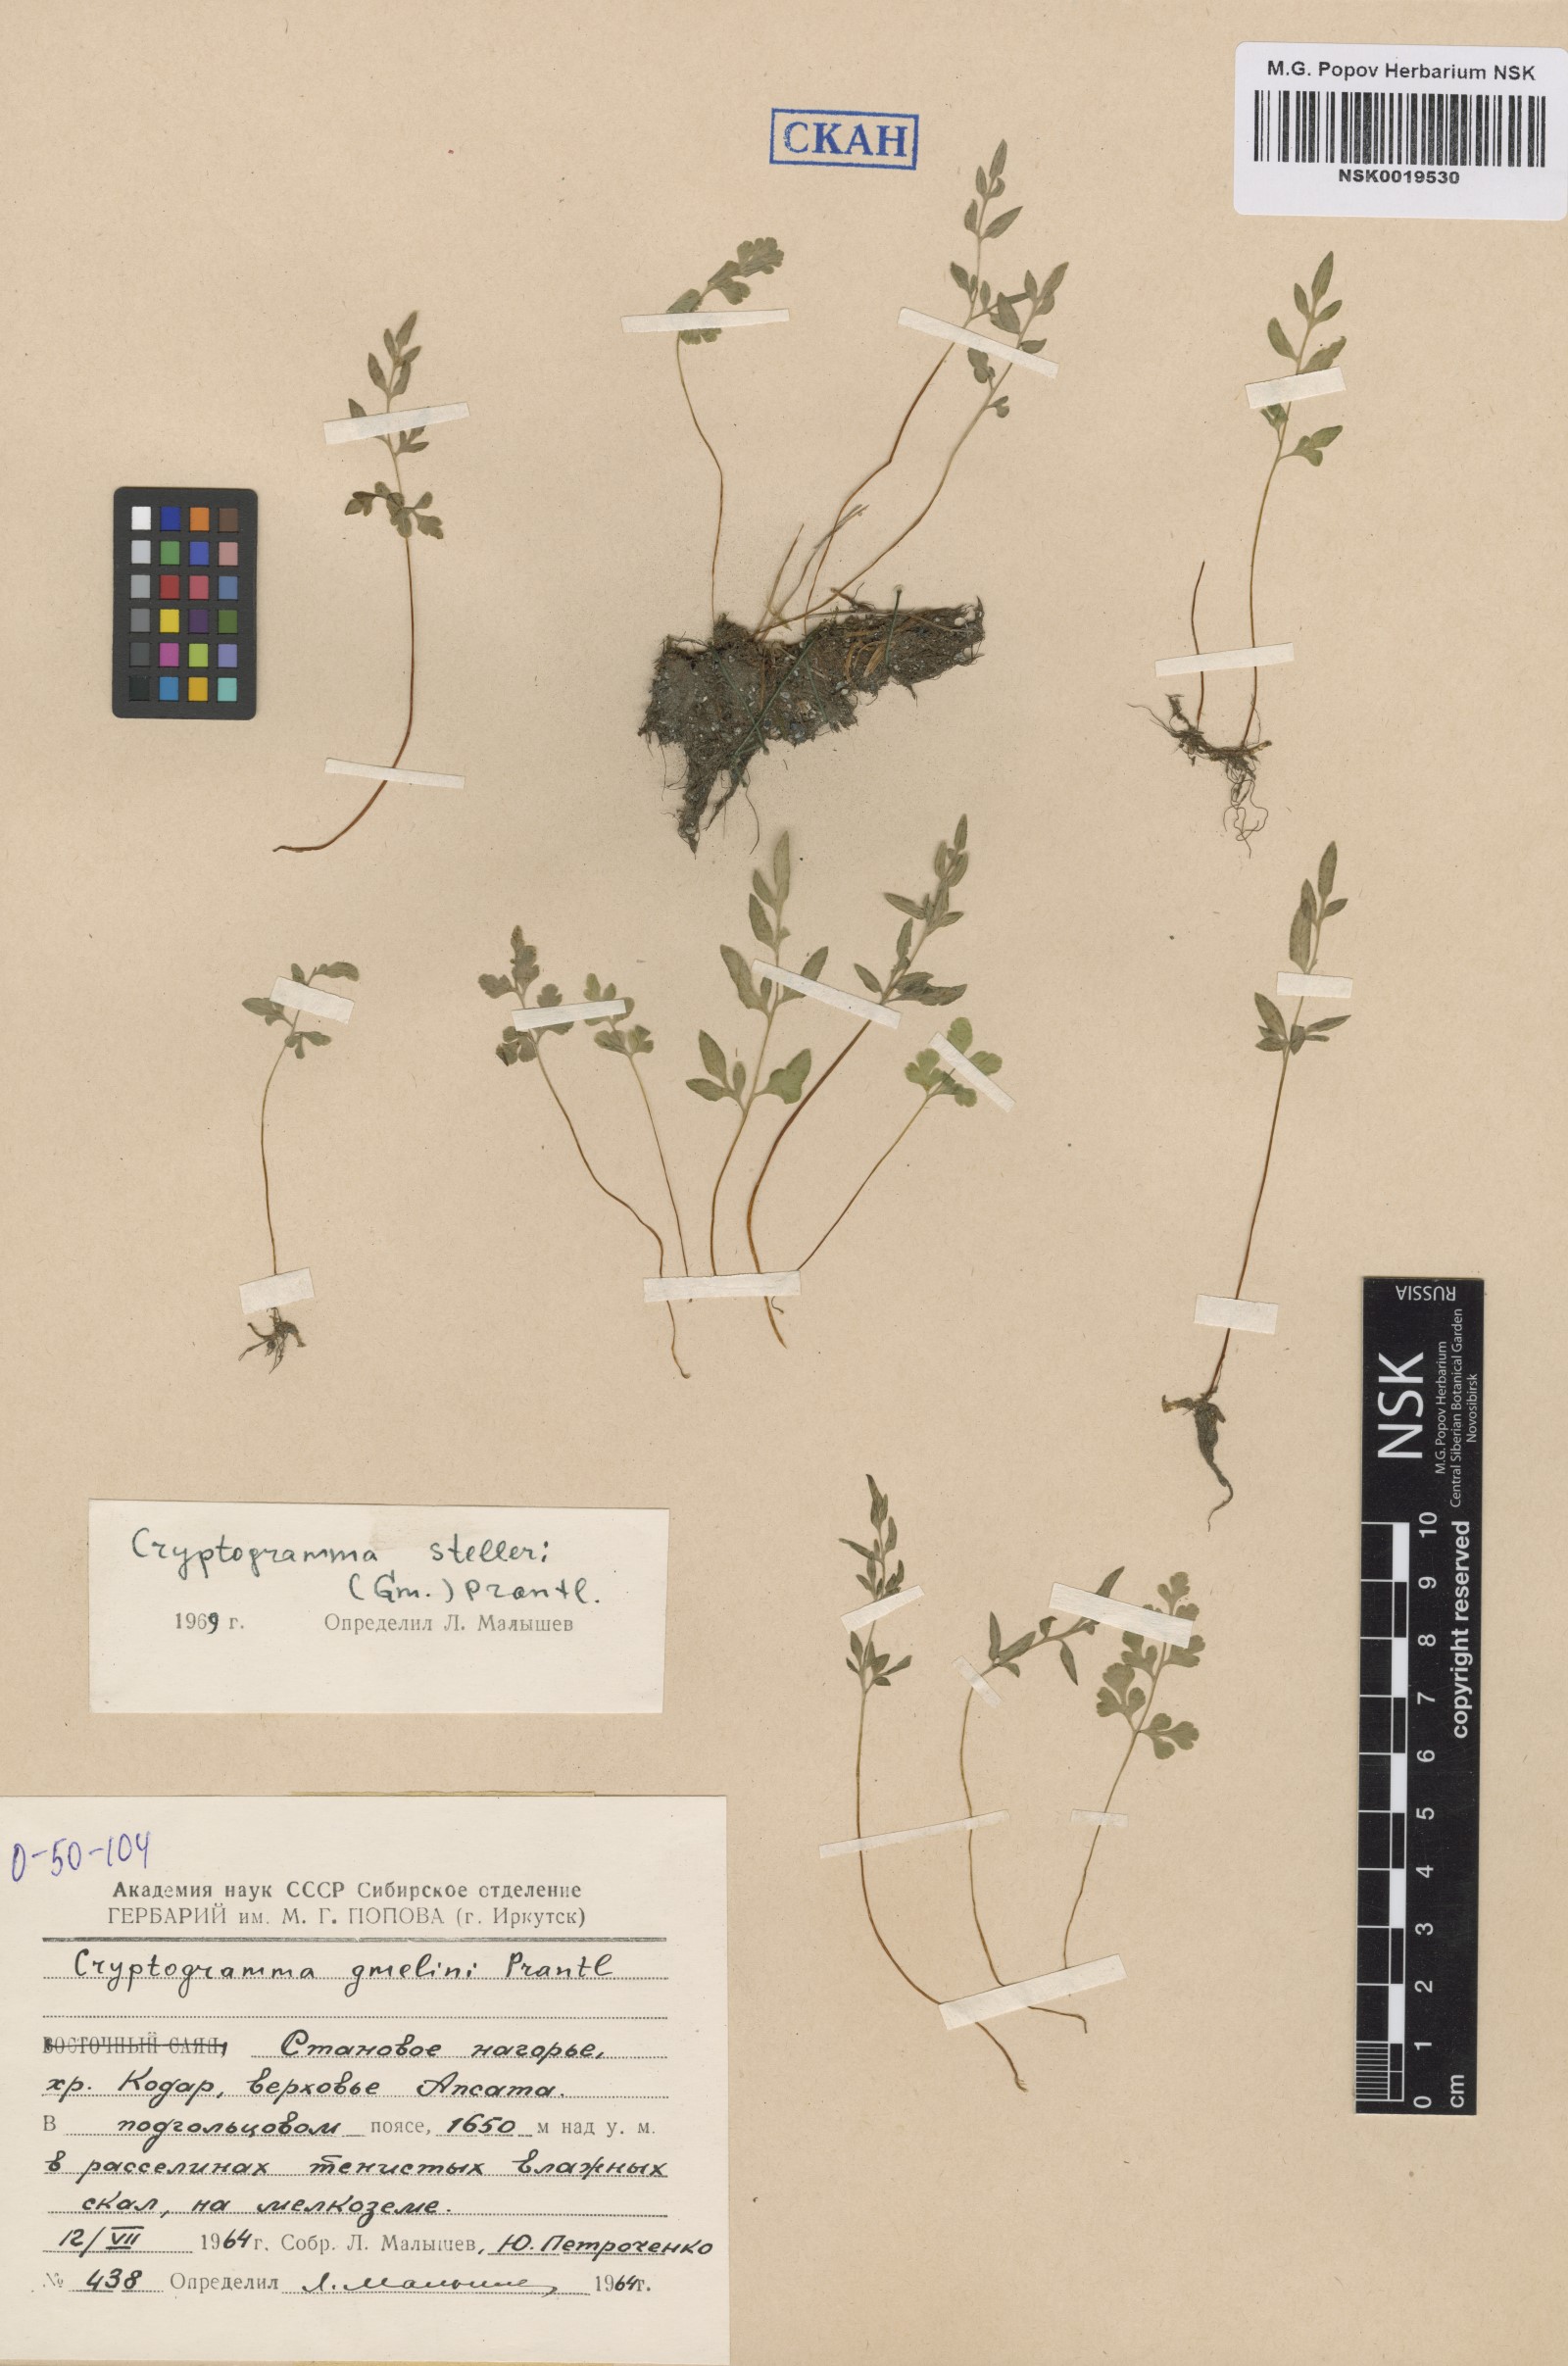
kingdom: Plantae
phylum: Tracheophyta
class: Polypodiopsida
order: Polypodiales
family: Pteridaceae
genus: Cryptogramma
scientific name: Cryptogramma stelleri
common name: Cliff-brake
